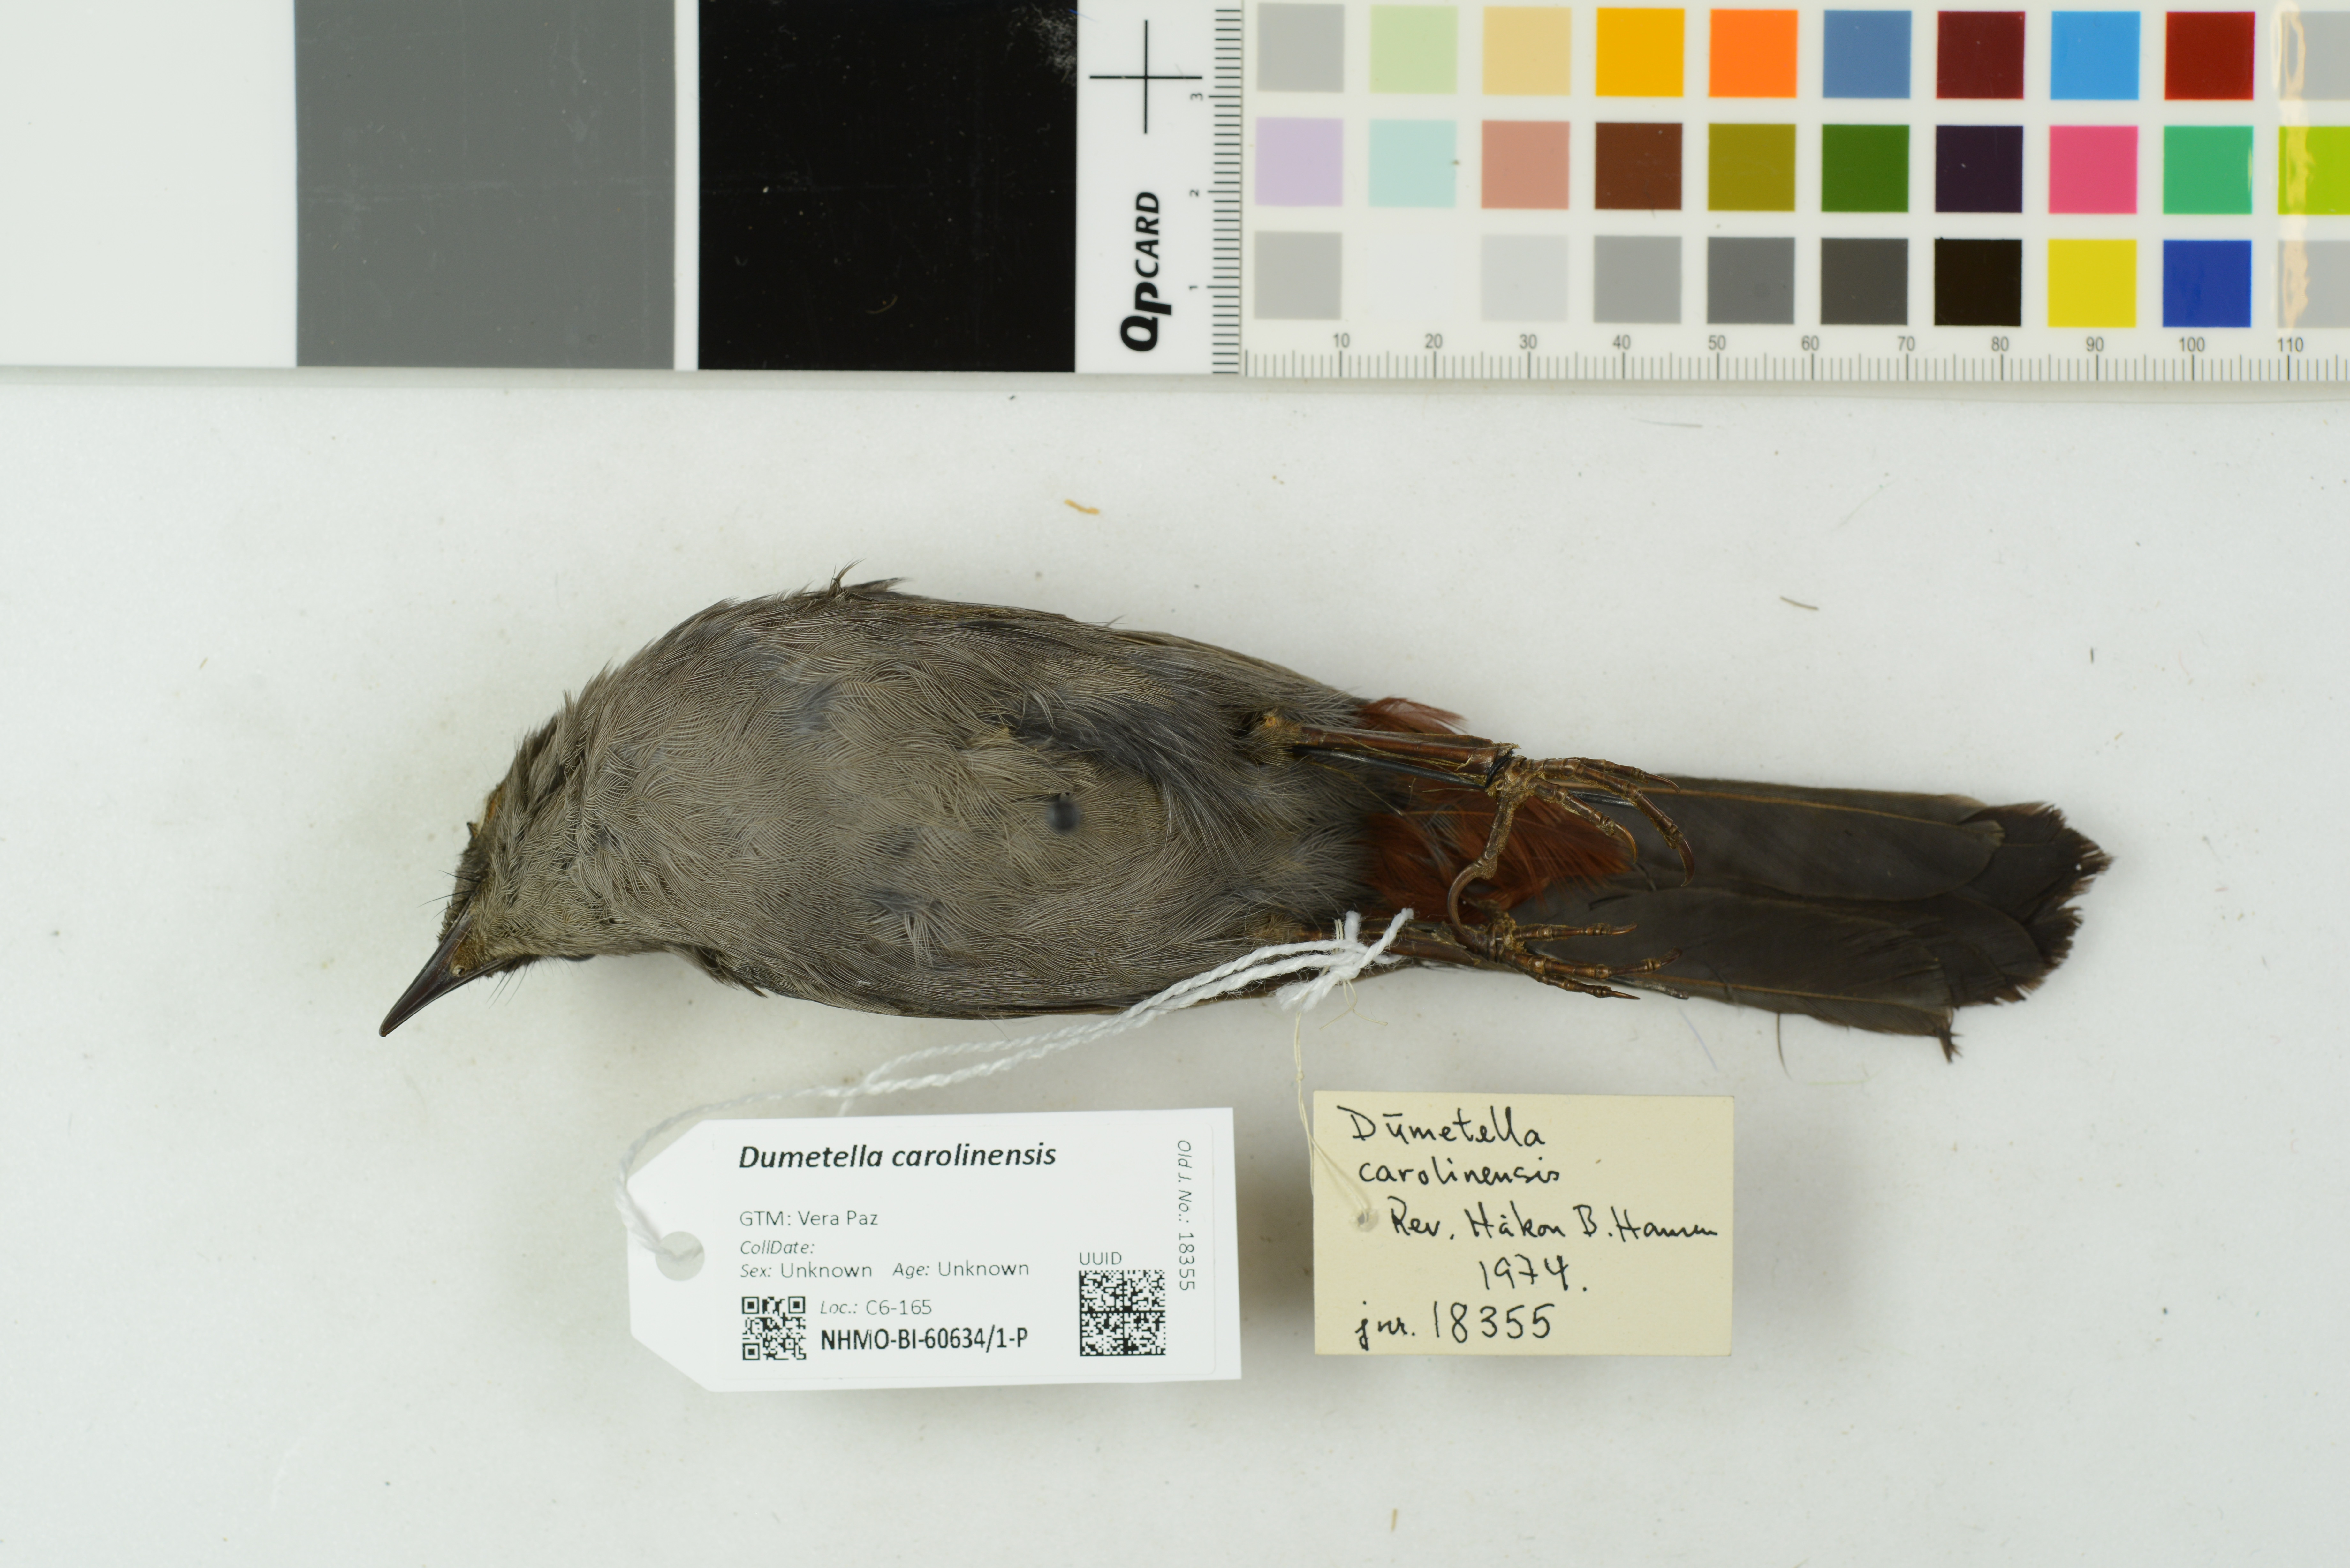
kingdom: Animalia
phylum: Chordata
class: Aves
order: Passeriformes
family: Mimidae
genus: Dumetella
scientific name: Dumetella carolinensis
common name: Gray catbird
